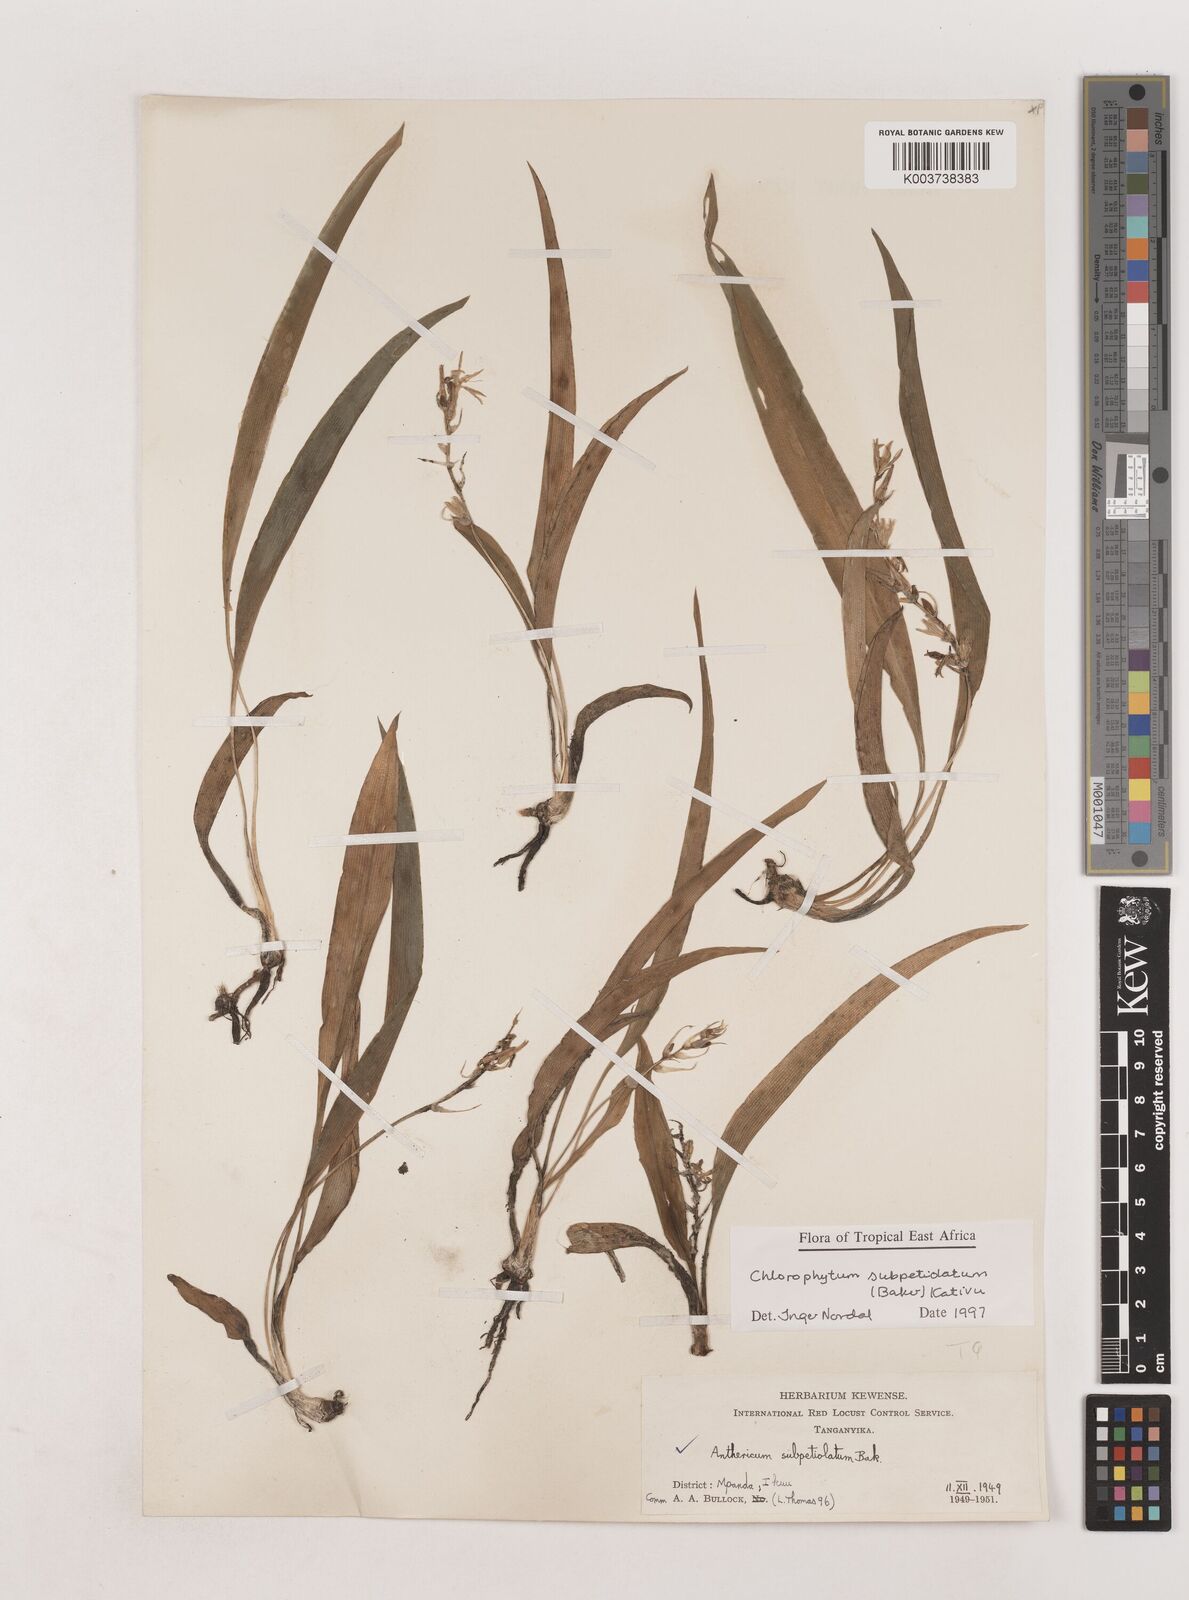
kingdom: Plantae
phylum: Tracheophyta
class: Liliopsida
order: Asparagales
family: Asparagaceae
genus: Chlorophytum
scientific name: Chlorophytum subpetiolatum
